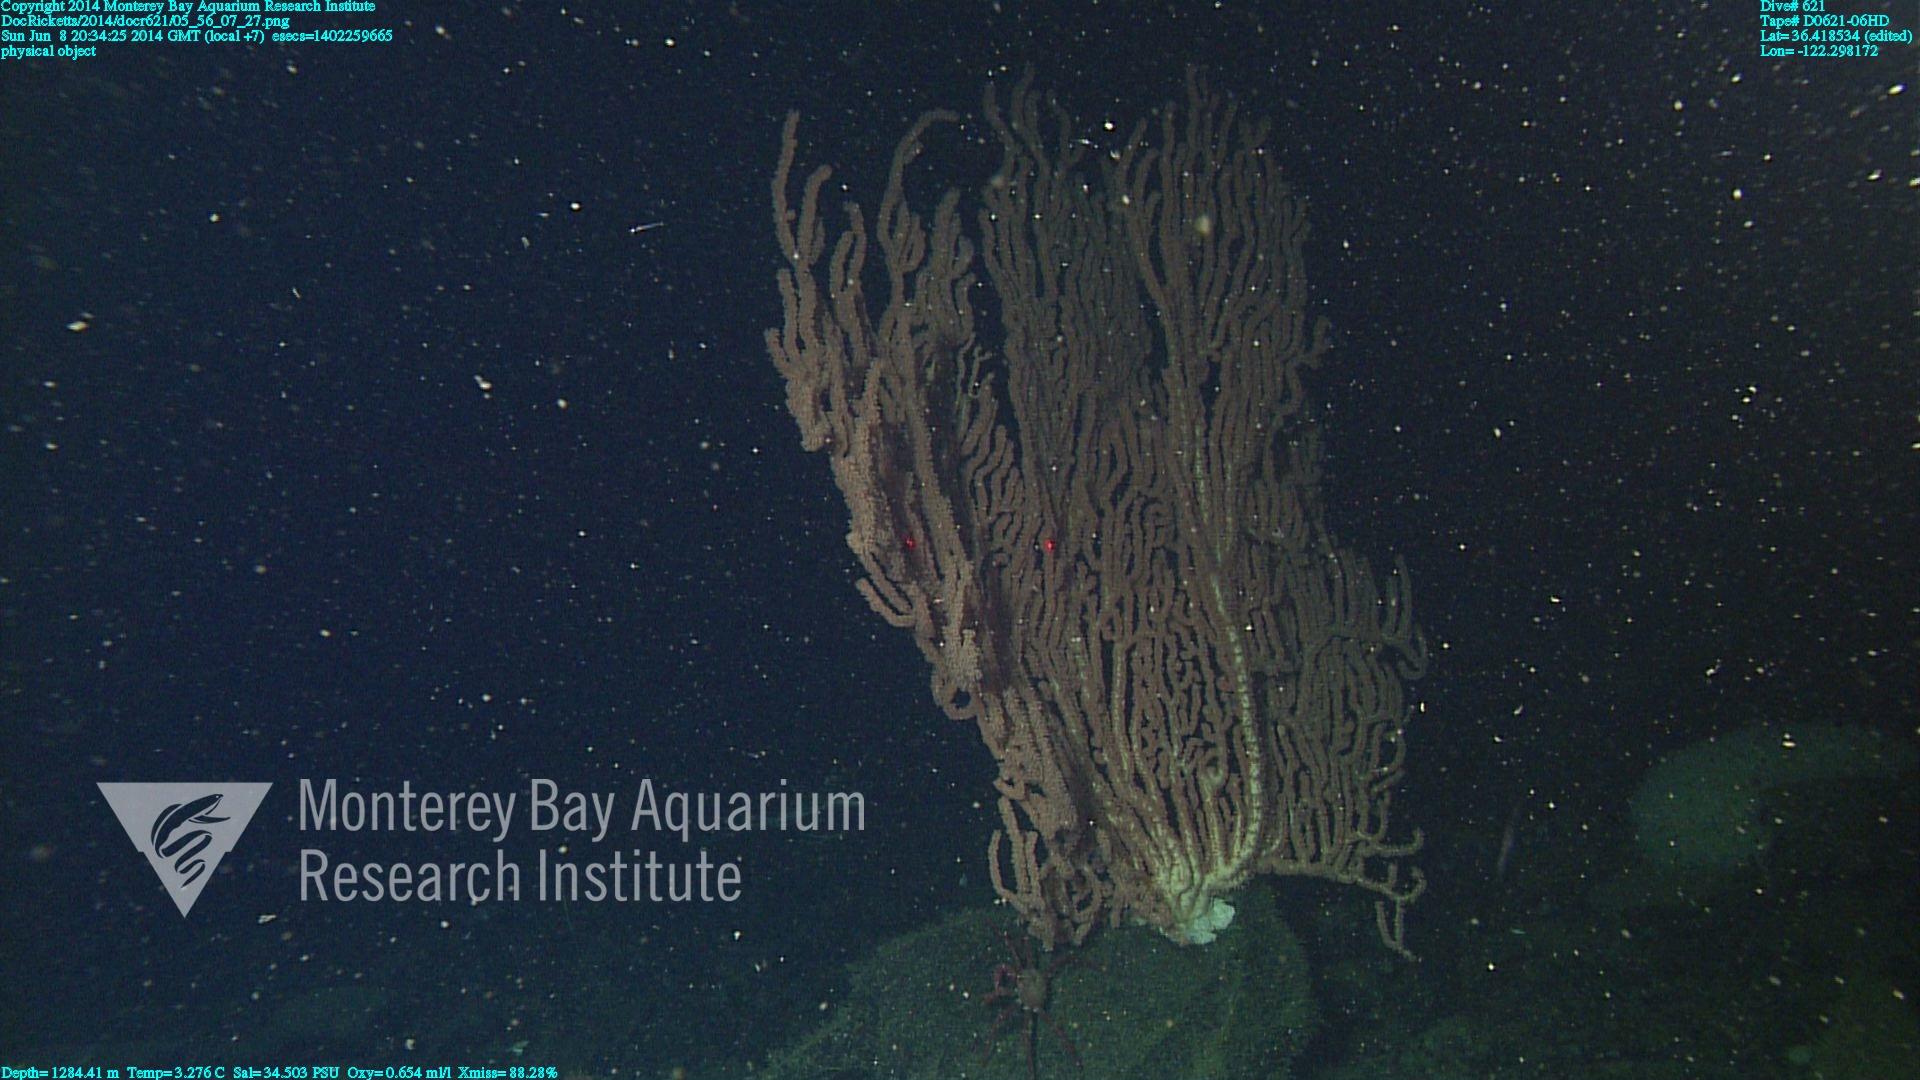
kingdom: Animalia
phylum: Cnidaria
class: Anthozoa
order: Scleralcyonacea
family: Keratoisididae
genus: Keratoisis
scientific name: Keratoisis
